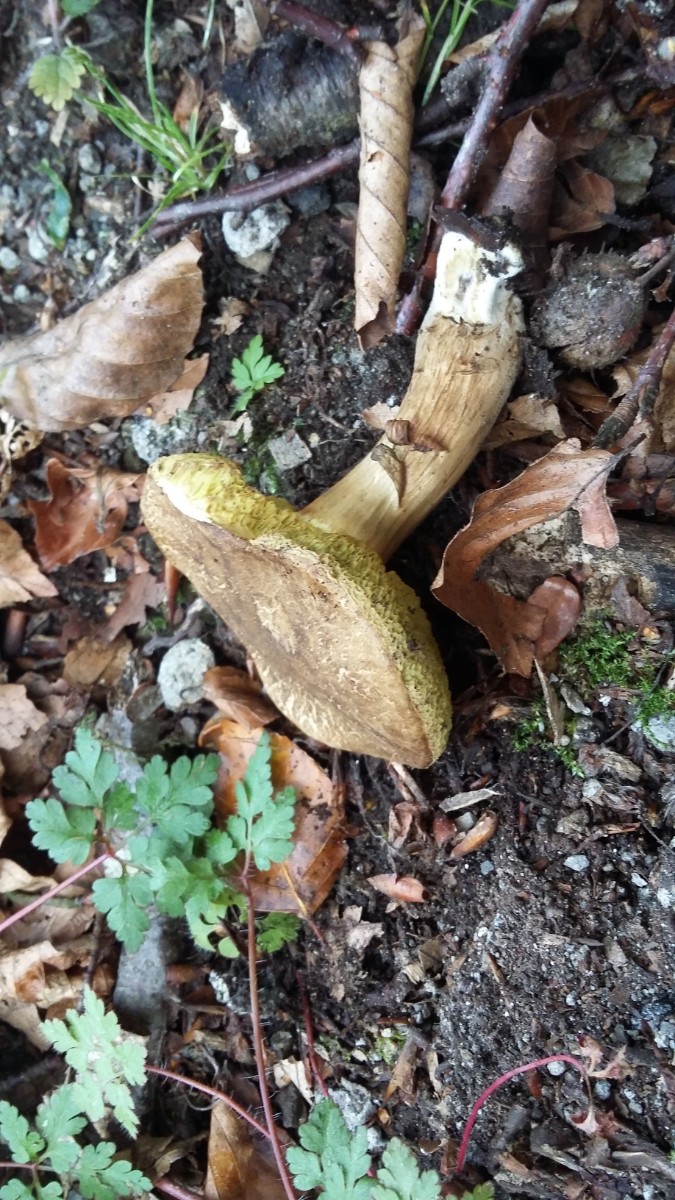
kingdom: Fungi
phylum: Basidiomycota
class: Agaricomycetes
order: Boletales
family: Boletaceae
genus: Xerocomellus
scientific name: Xerocomellus porosporus
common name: hvidsprukken rørhat
